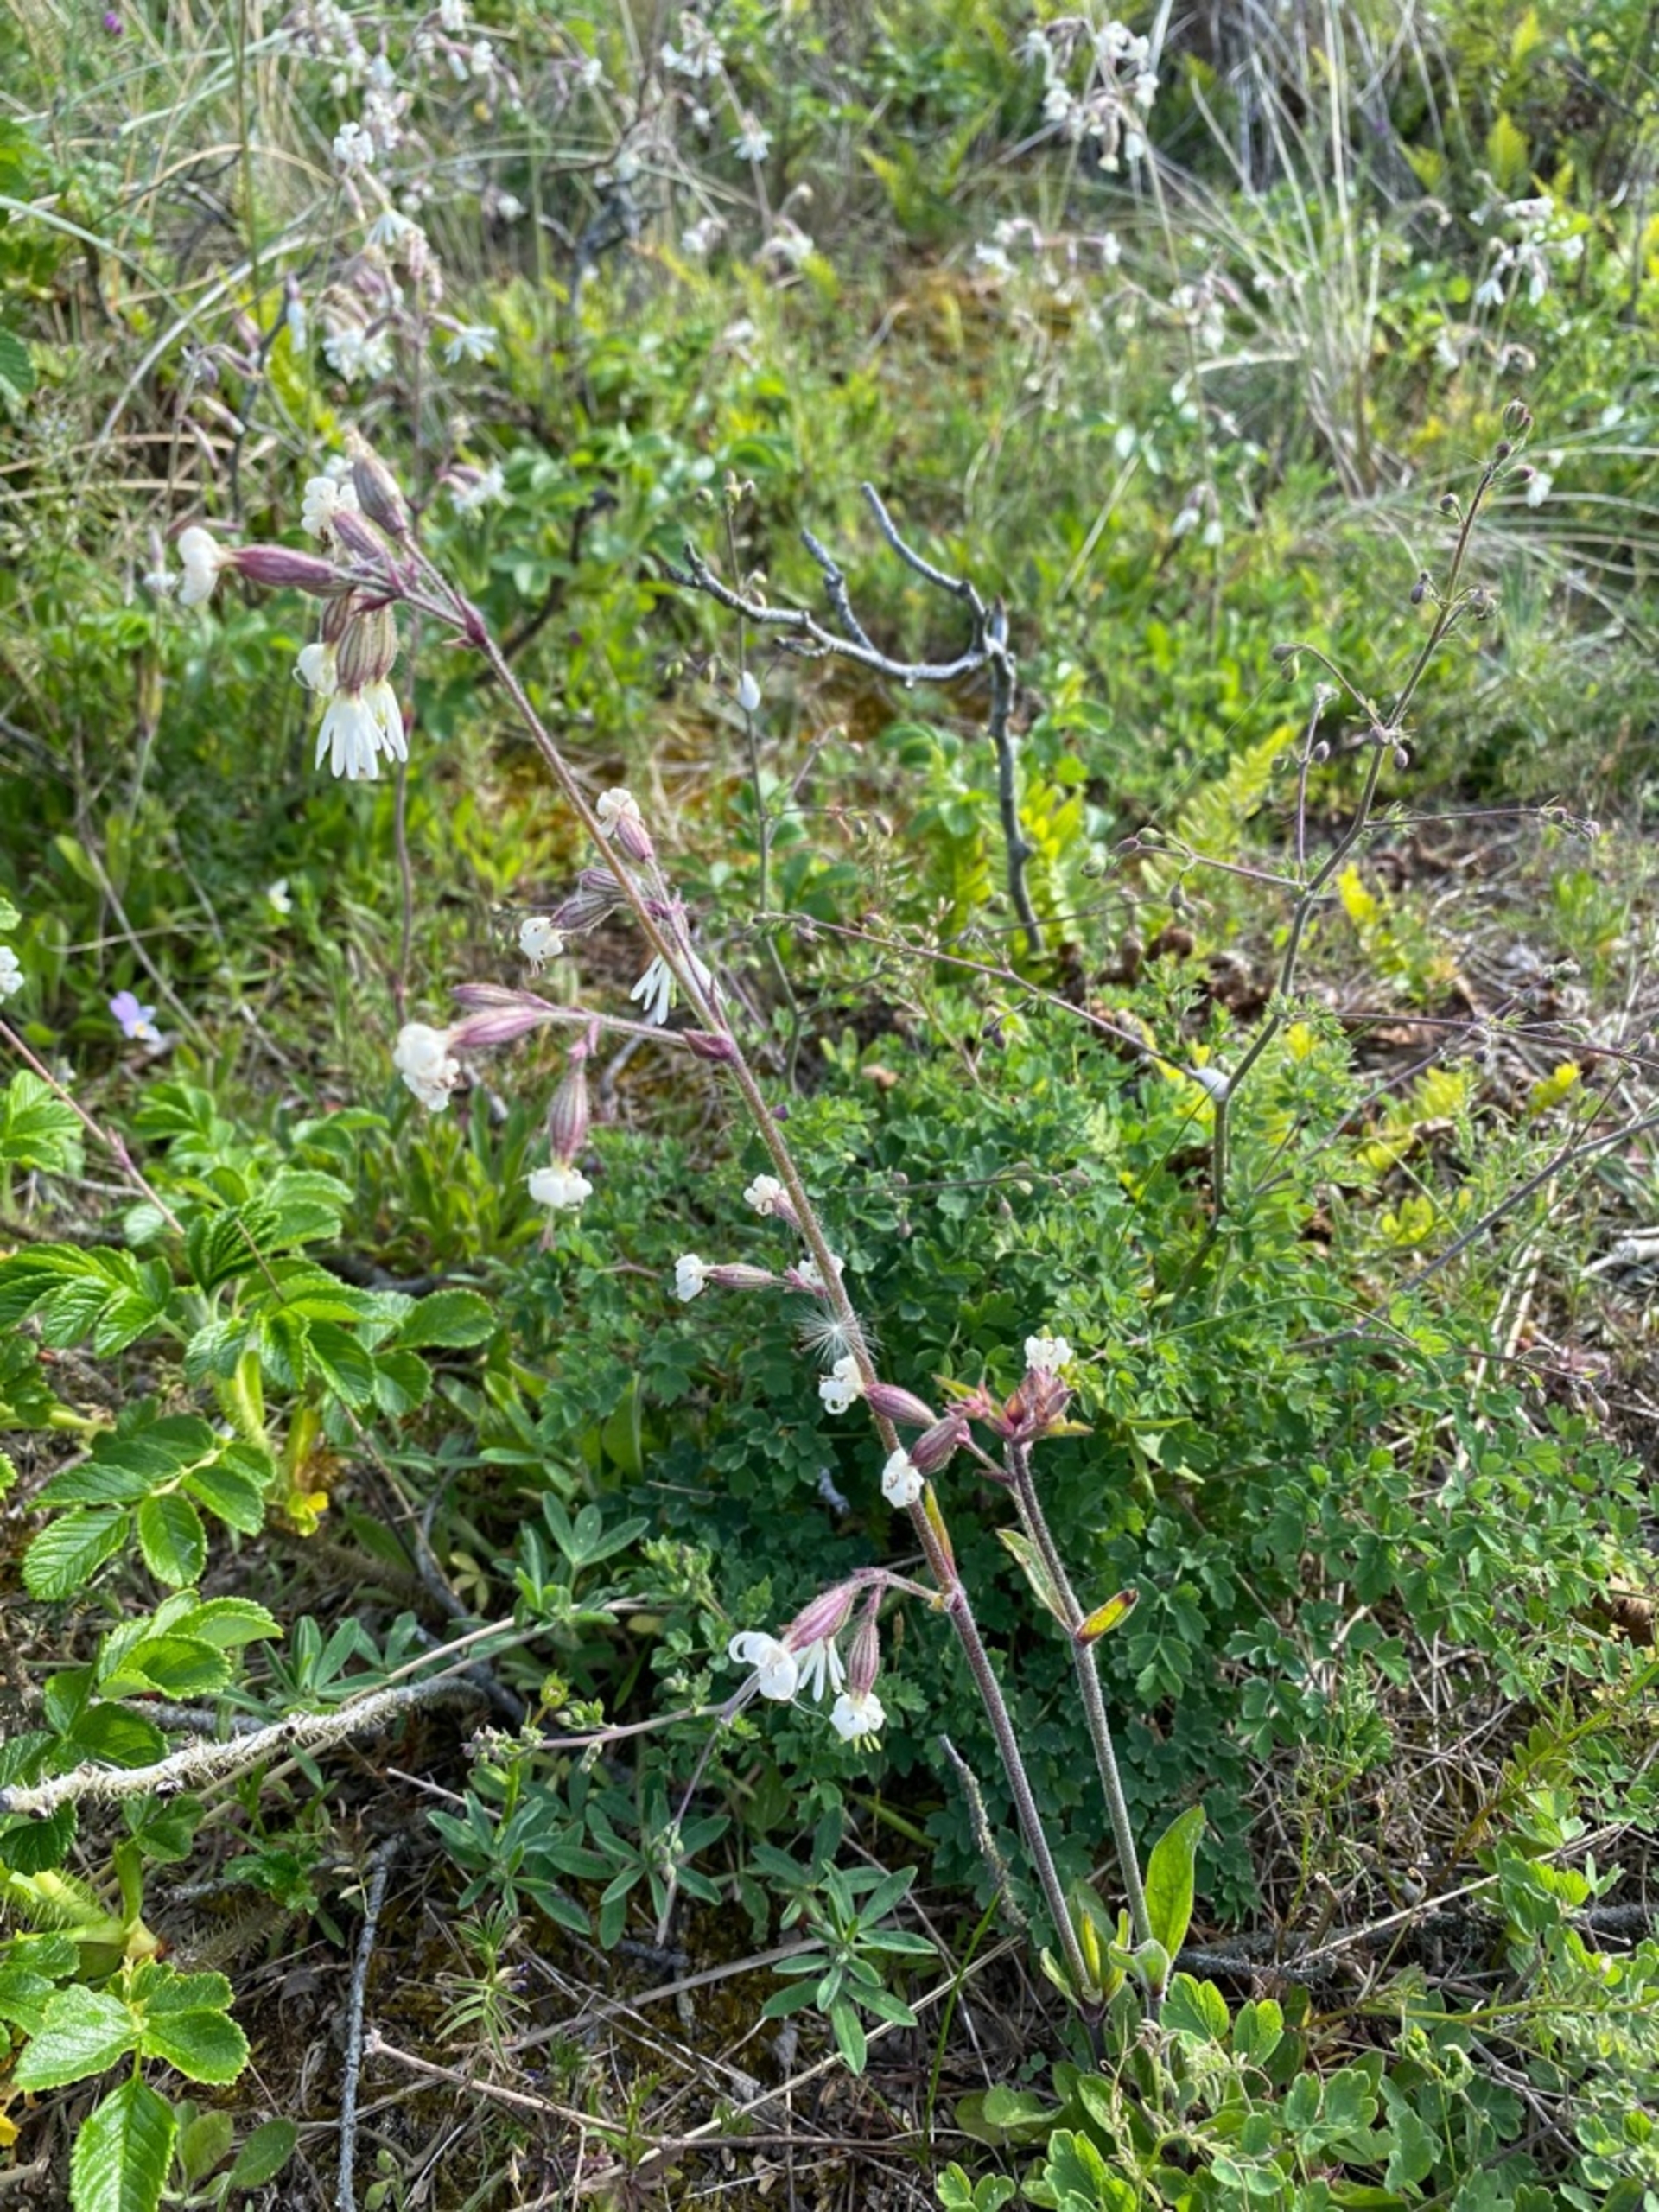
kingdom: Plantae
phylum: Tracheophyta
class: Magnoliopsida
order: Caryophyllales
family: Caryophyllaceae
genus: Silene
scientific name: Silene nutans
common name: Nikkende limurt
